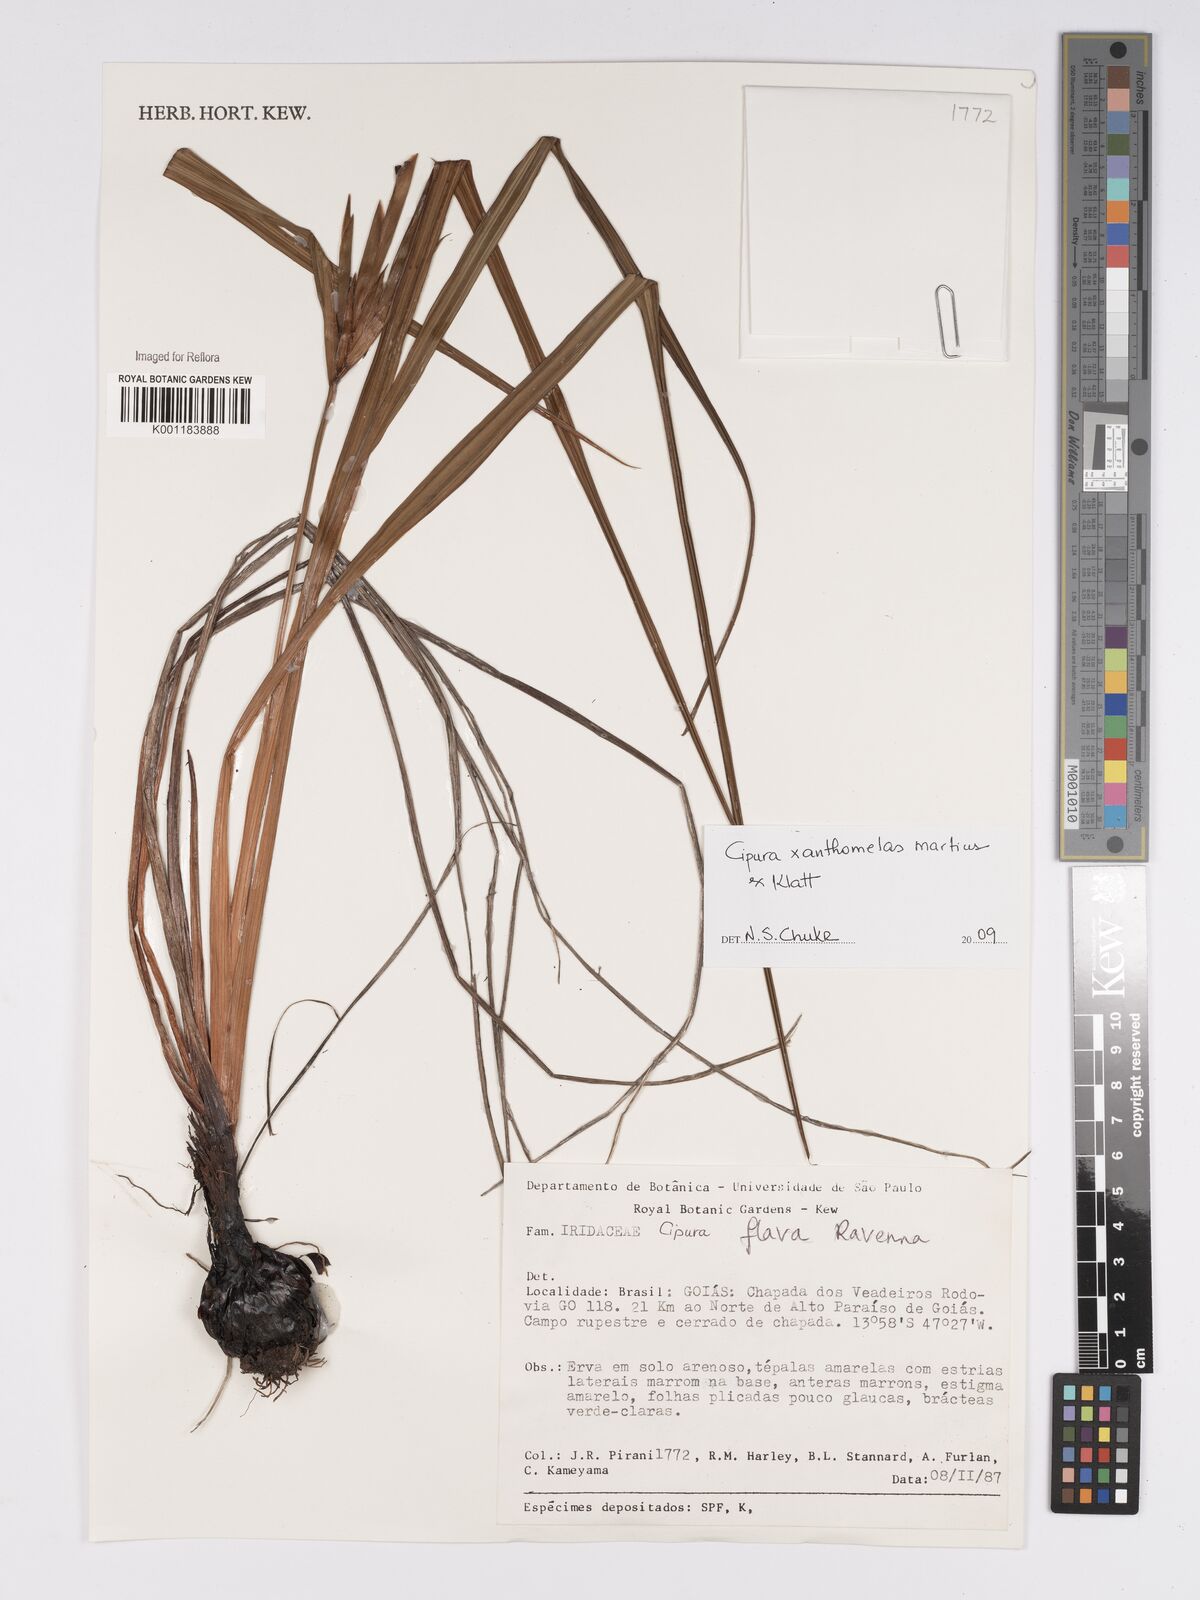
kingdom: Plantae
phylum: Tracheophyta
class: Liliopsida
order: Asparagales
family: Iridaceae
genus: Cipura
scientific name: Cipura xanthomelas
